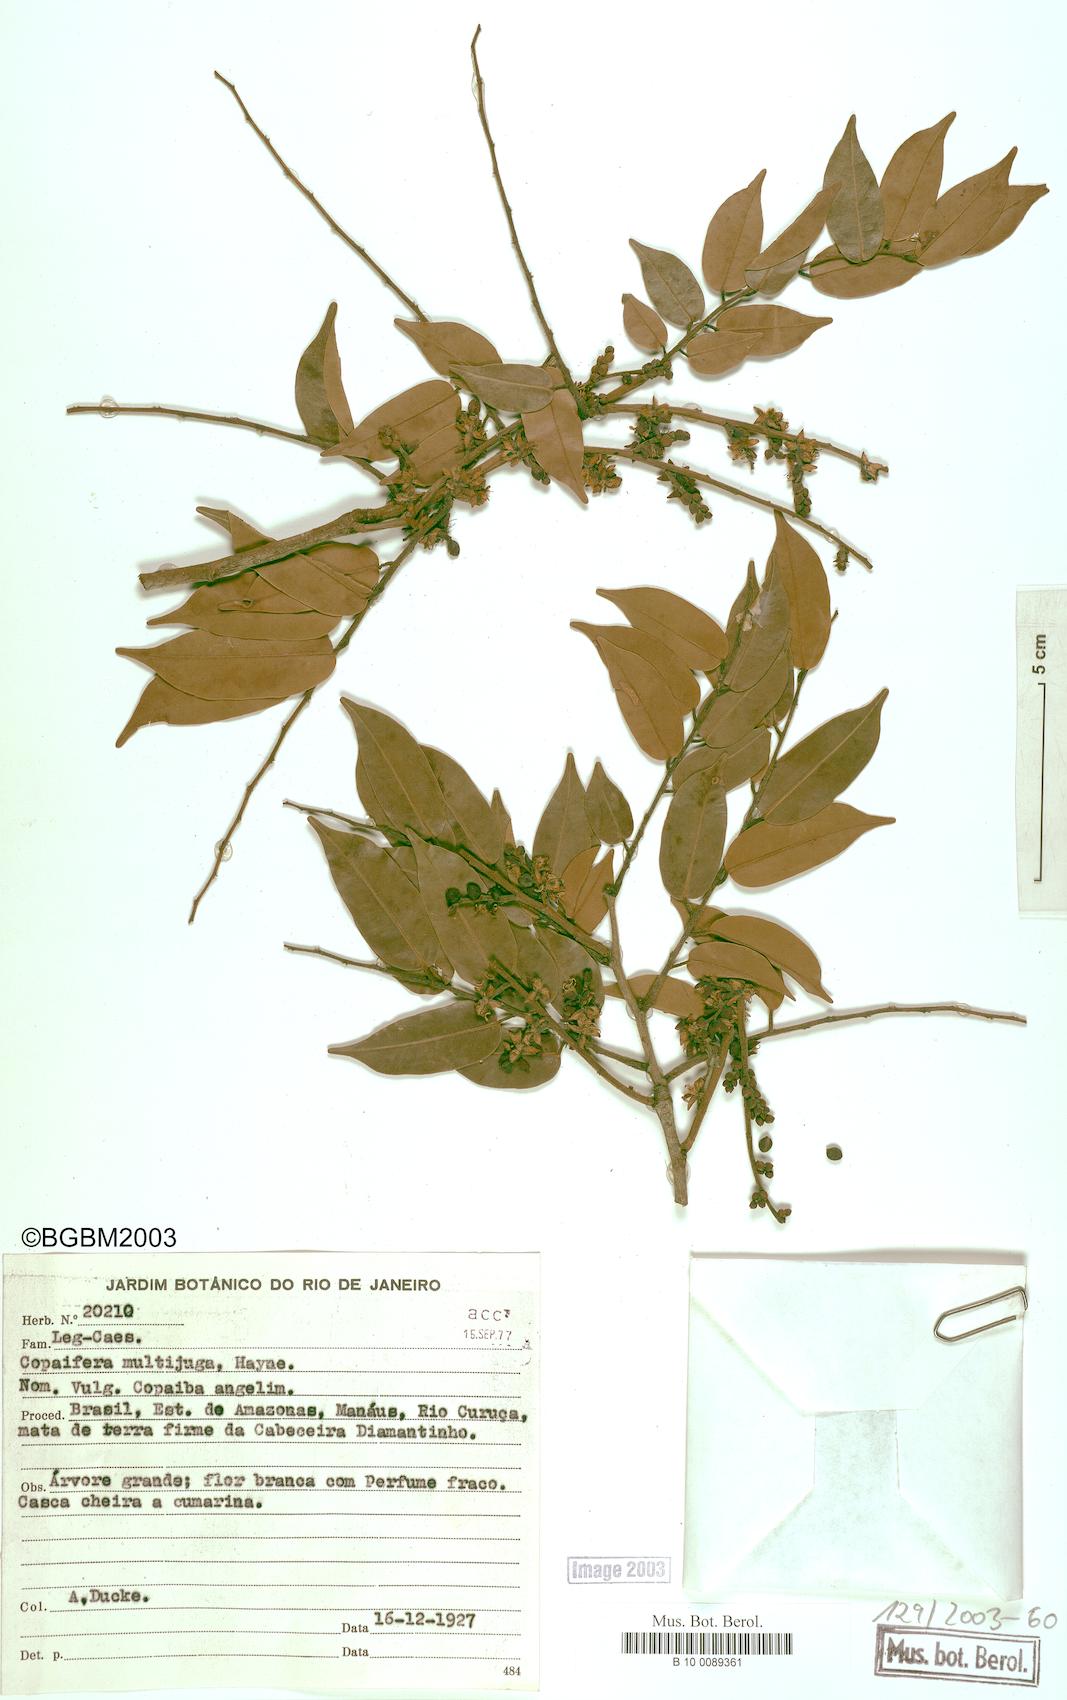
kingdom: Plantae
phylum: Tracheophyta
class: Magnoliopsida
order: Fabales
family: Fabaceae
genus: Copaifera
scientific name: Copaifera multijuga
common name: Brazilian copaiba
